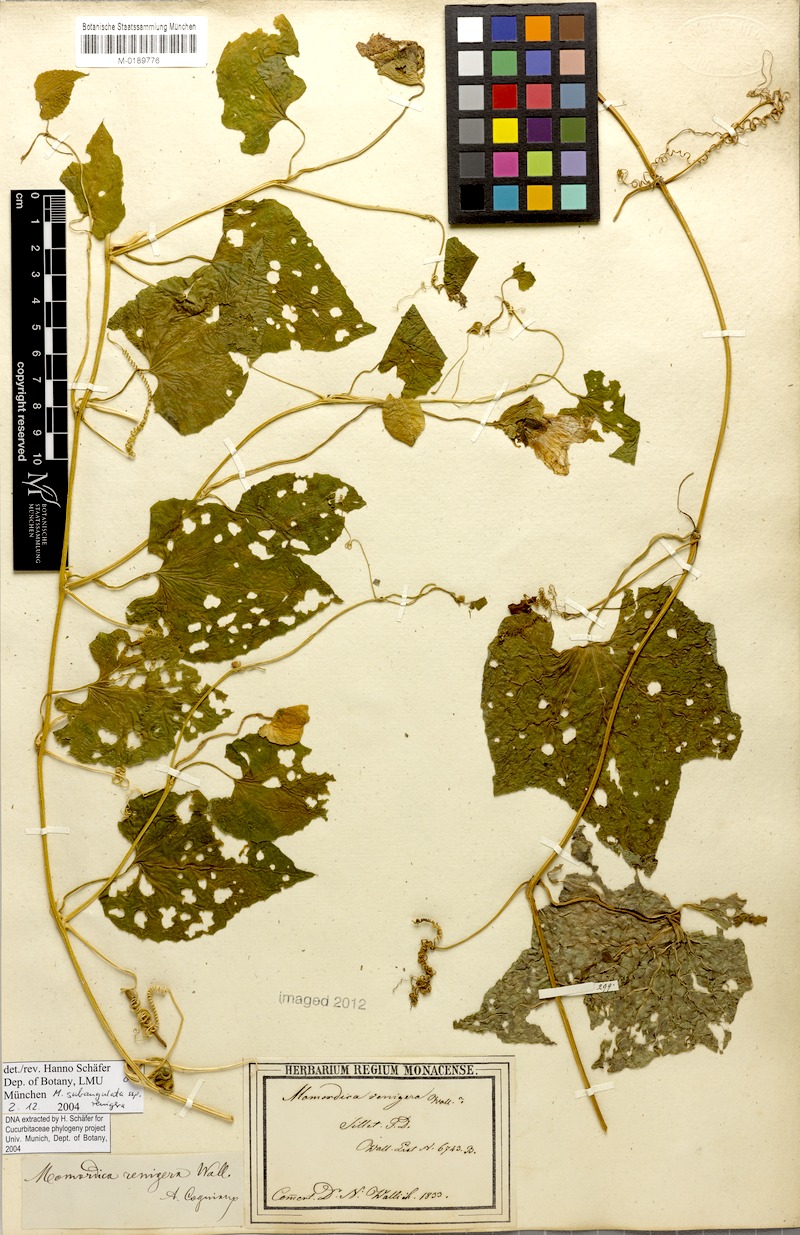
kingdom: Plantae
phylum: Tracheophyta
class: Magnoliopsida
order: Cucurbitales
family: Cucurbitaceae
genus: Momordica
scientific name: Momordica subangulata
